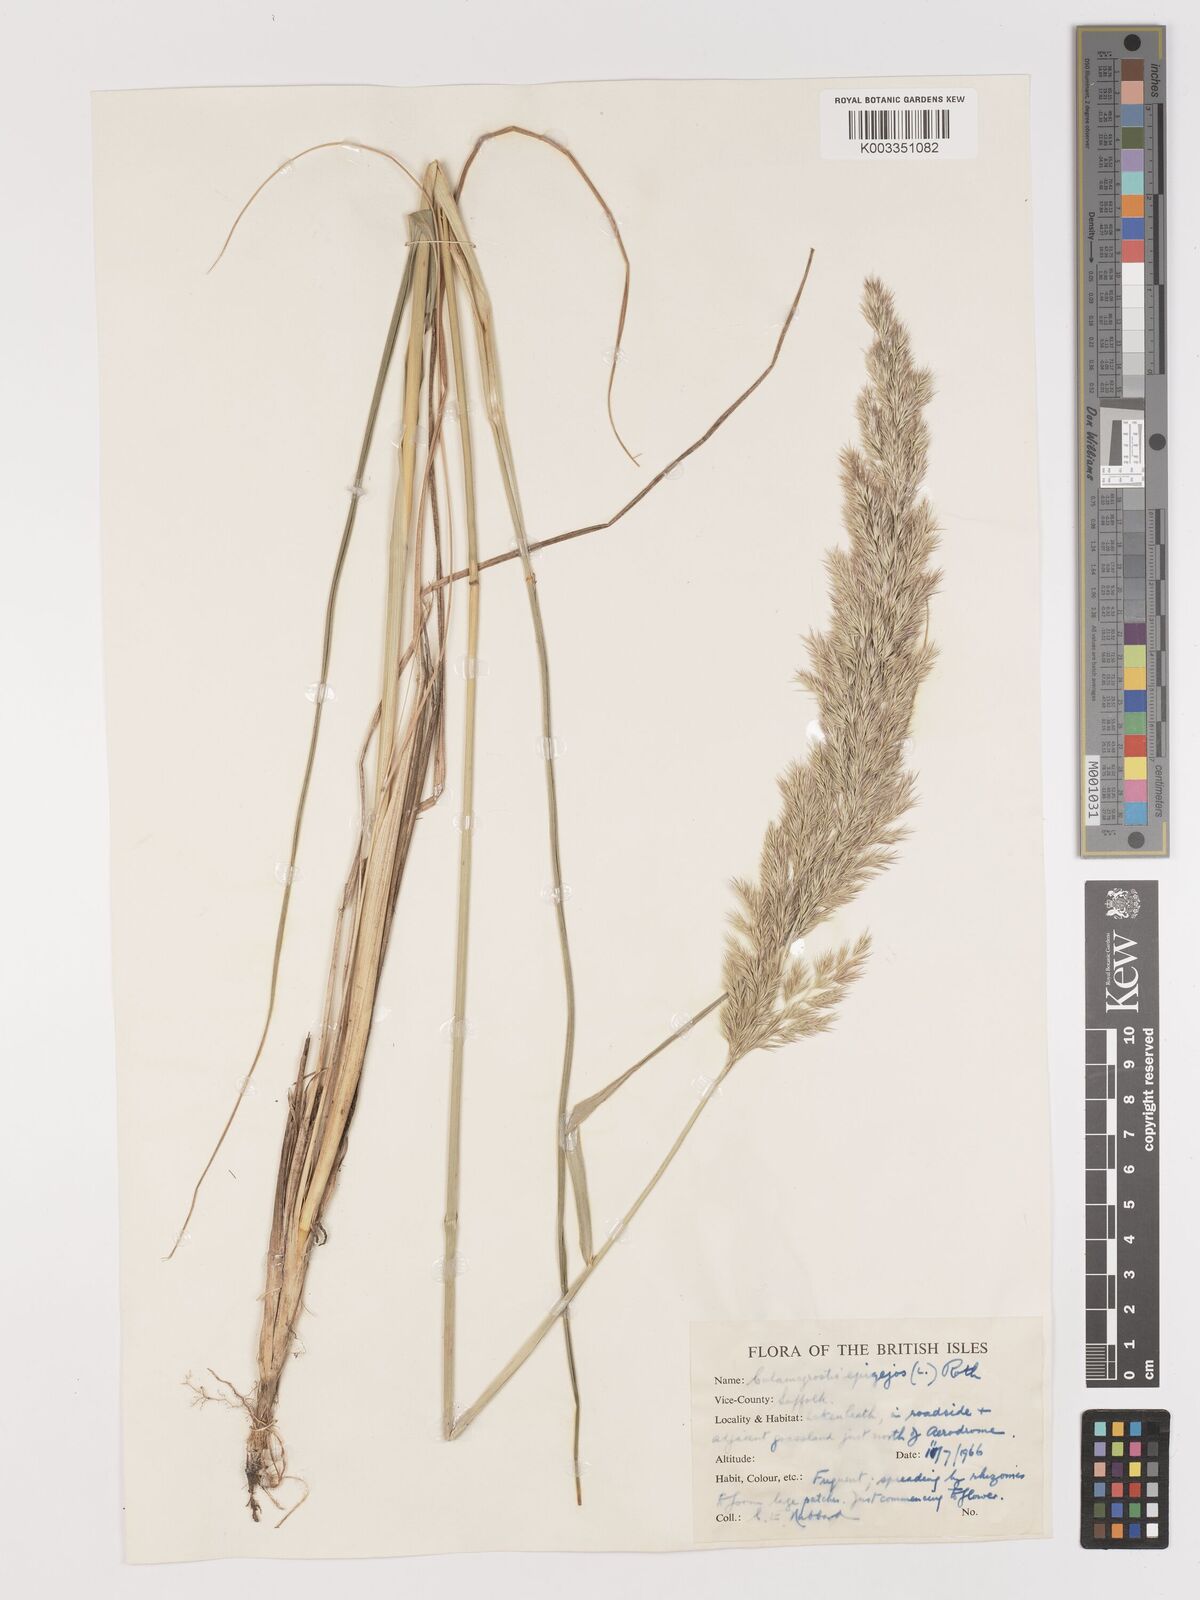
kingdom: Plantae
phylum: Tracheophyta
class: Liliopsida
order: Poales
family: Poaceae
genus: Calamagrostis
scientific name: Calamagrostis
